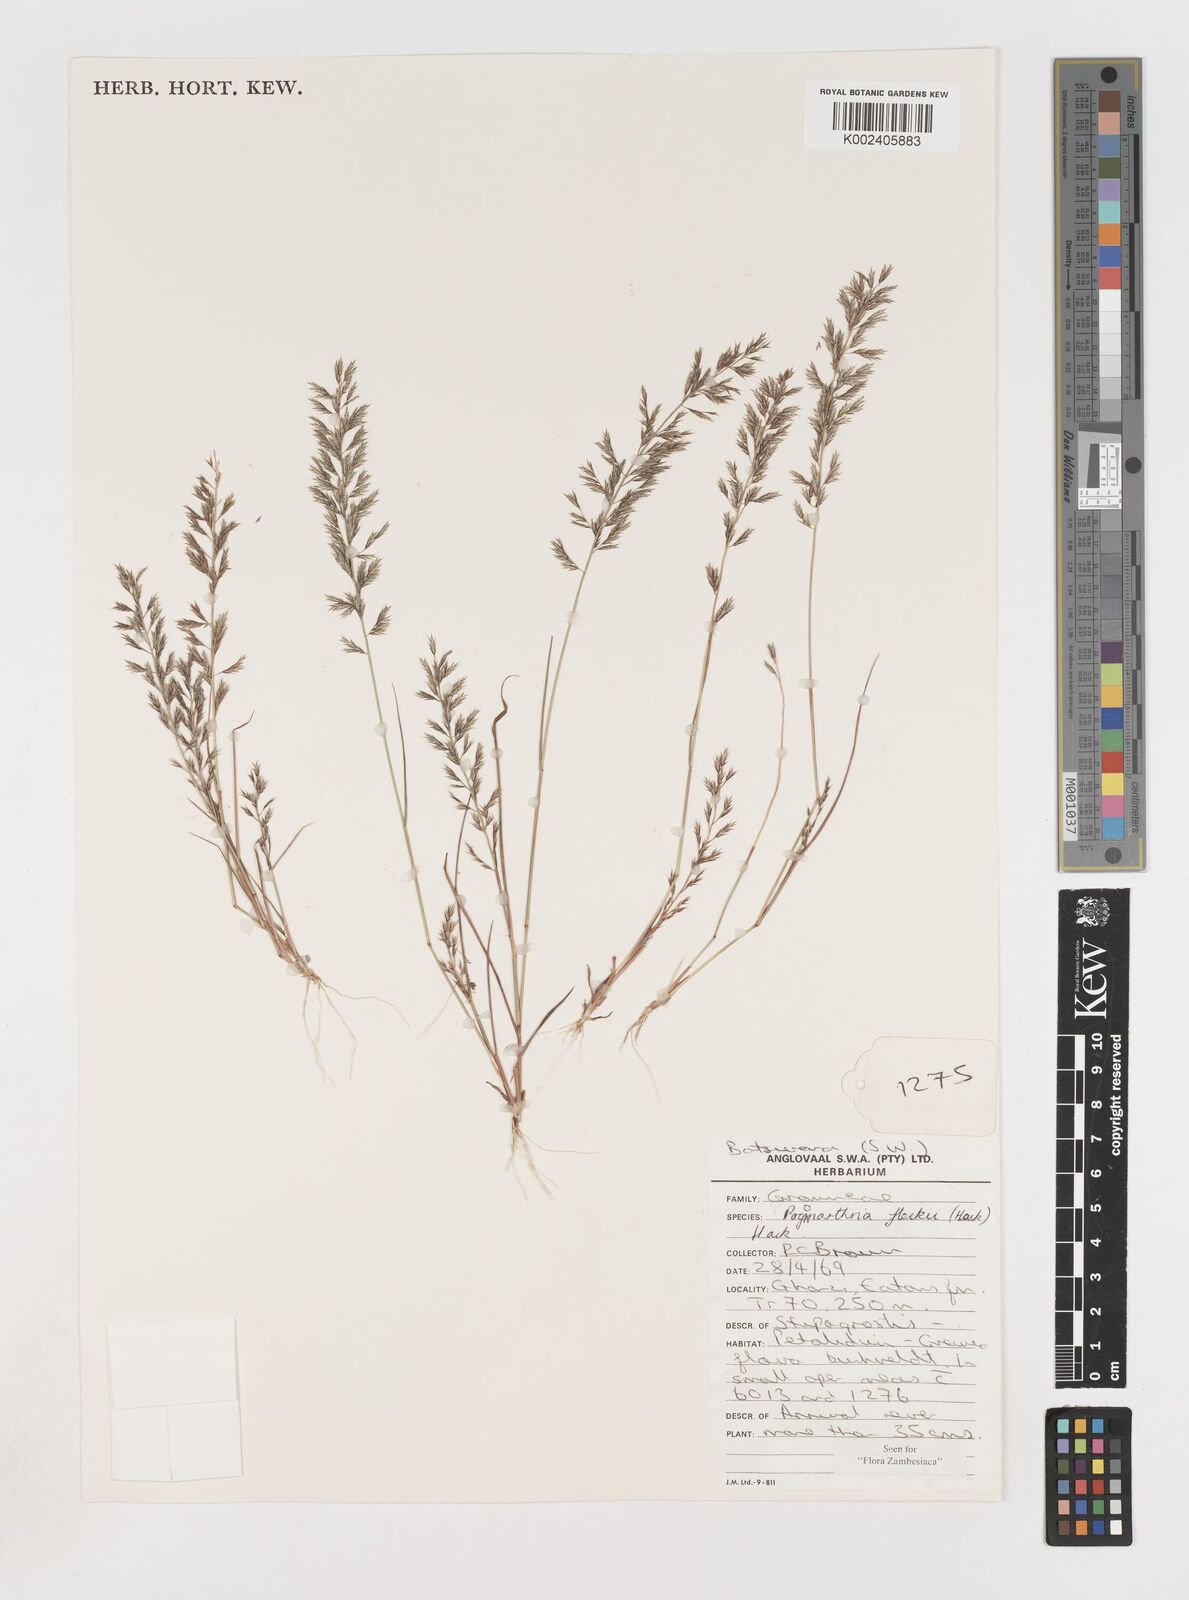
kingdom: Plantae
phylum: Tracheophyta
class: Liliopsida
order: Poales
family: Poaceae
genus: Pogonarthria
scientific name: Pogonarthria fleckii
